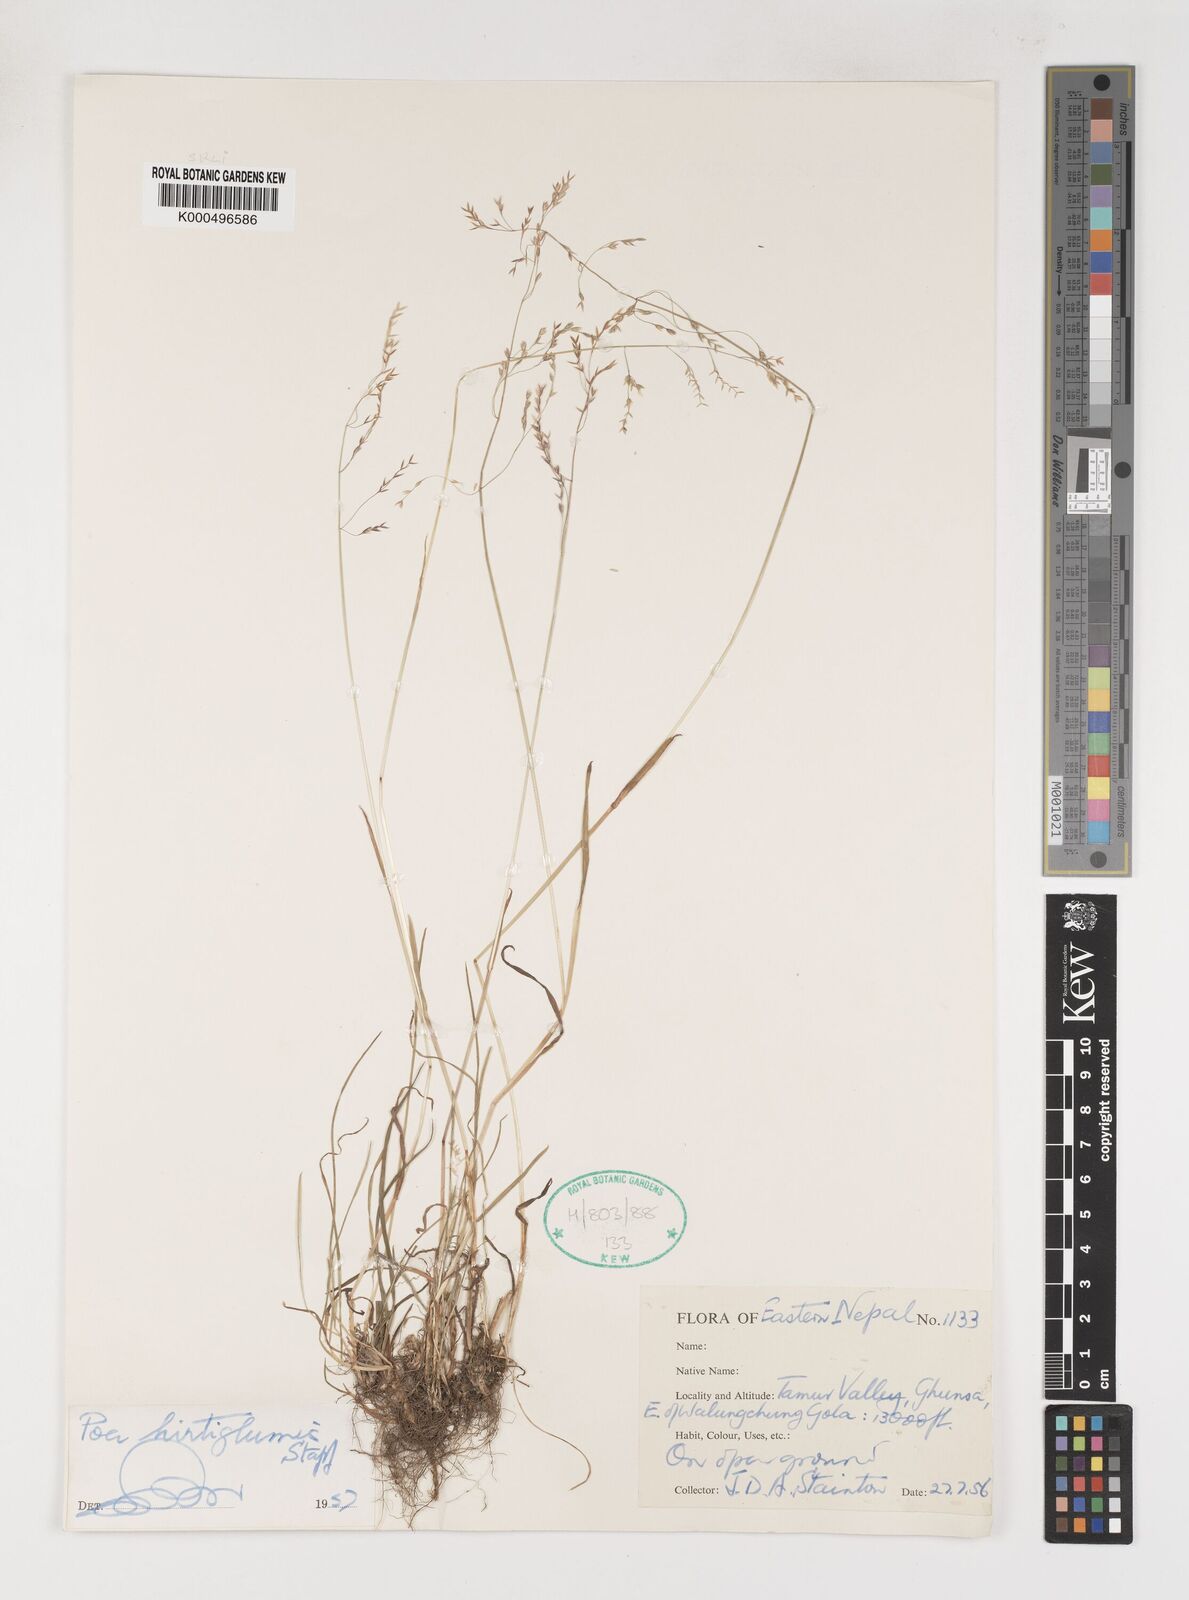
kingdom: Plantae
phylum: Tracheophyta
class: Liliopsida
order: Poales
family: Poaceae
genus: Poa
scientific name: Poa hirtiglumis
